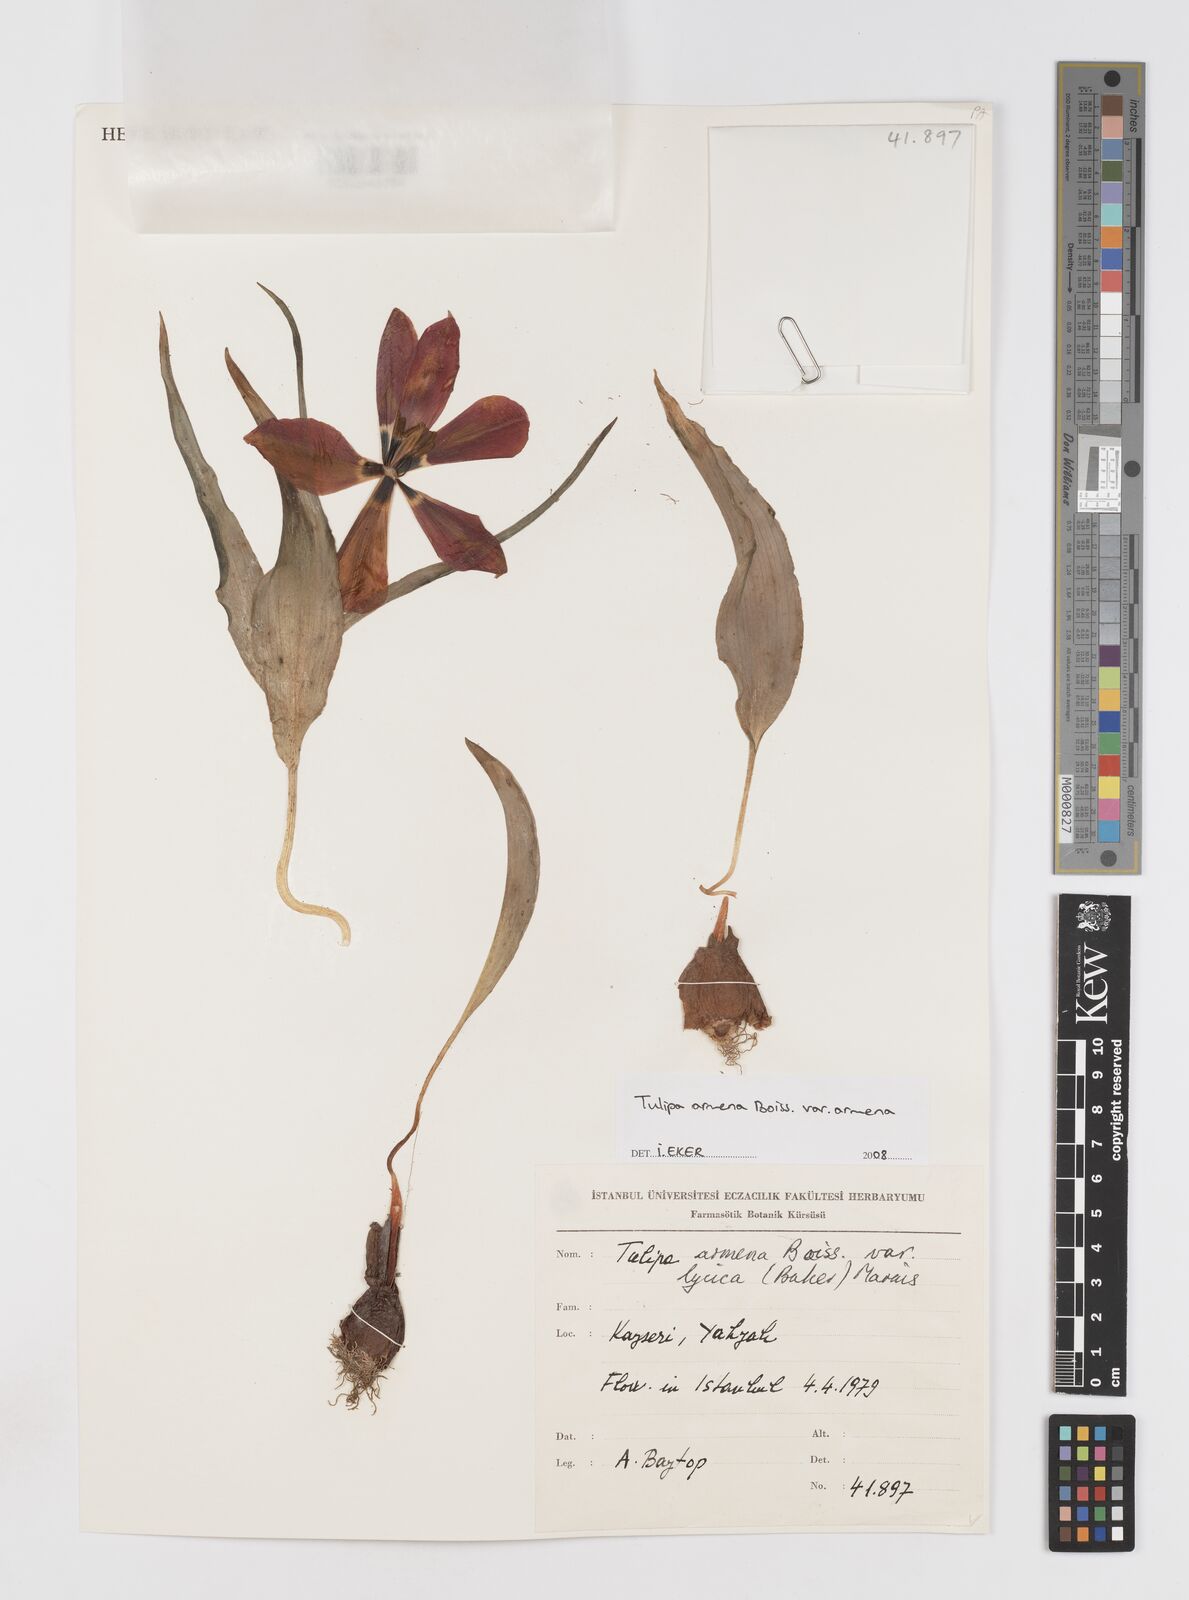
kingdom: Plantae
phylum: Tracheophyta
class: Liliopsida
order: Liliales
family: Liliaceae
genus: Tulipa
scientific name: Tulipa foliosa
